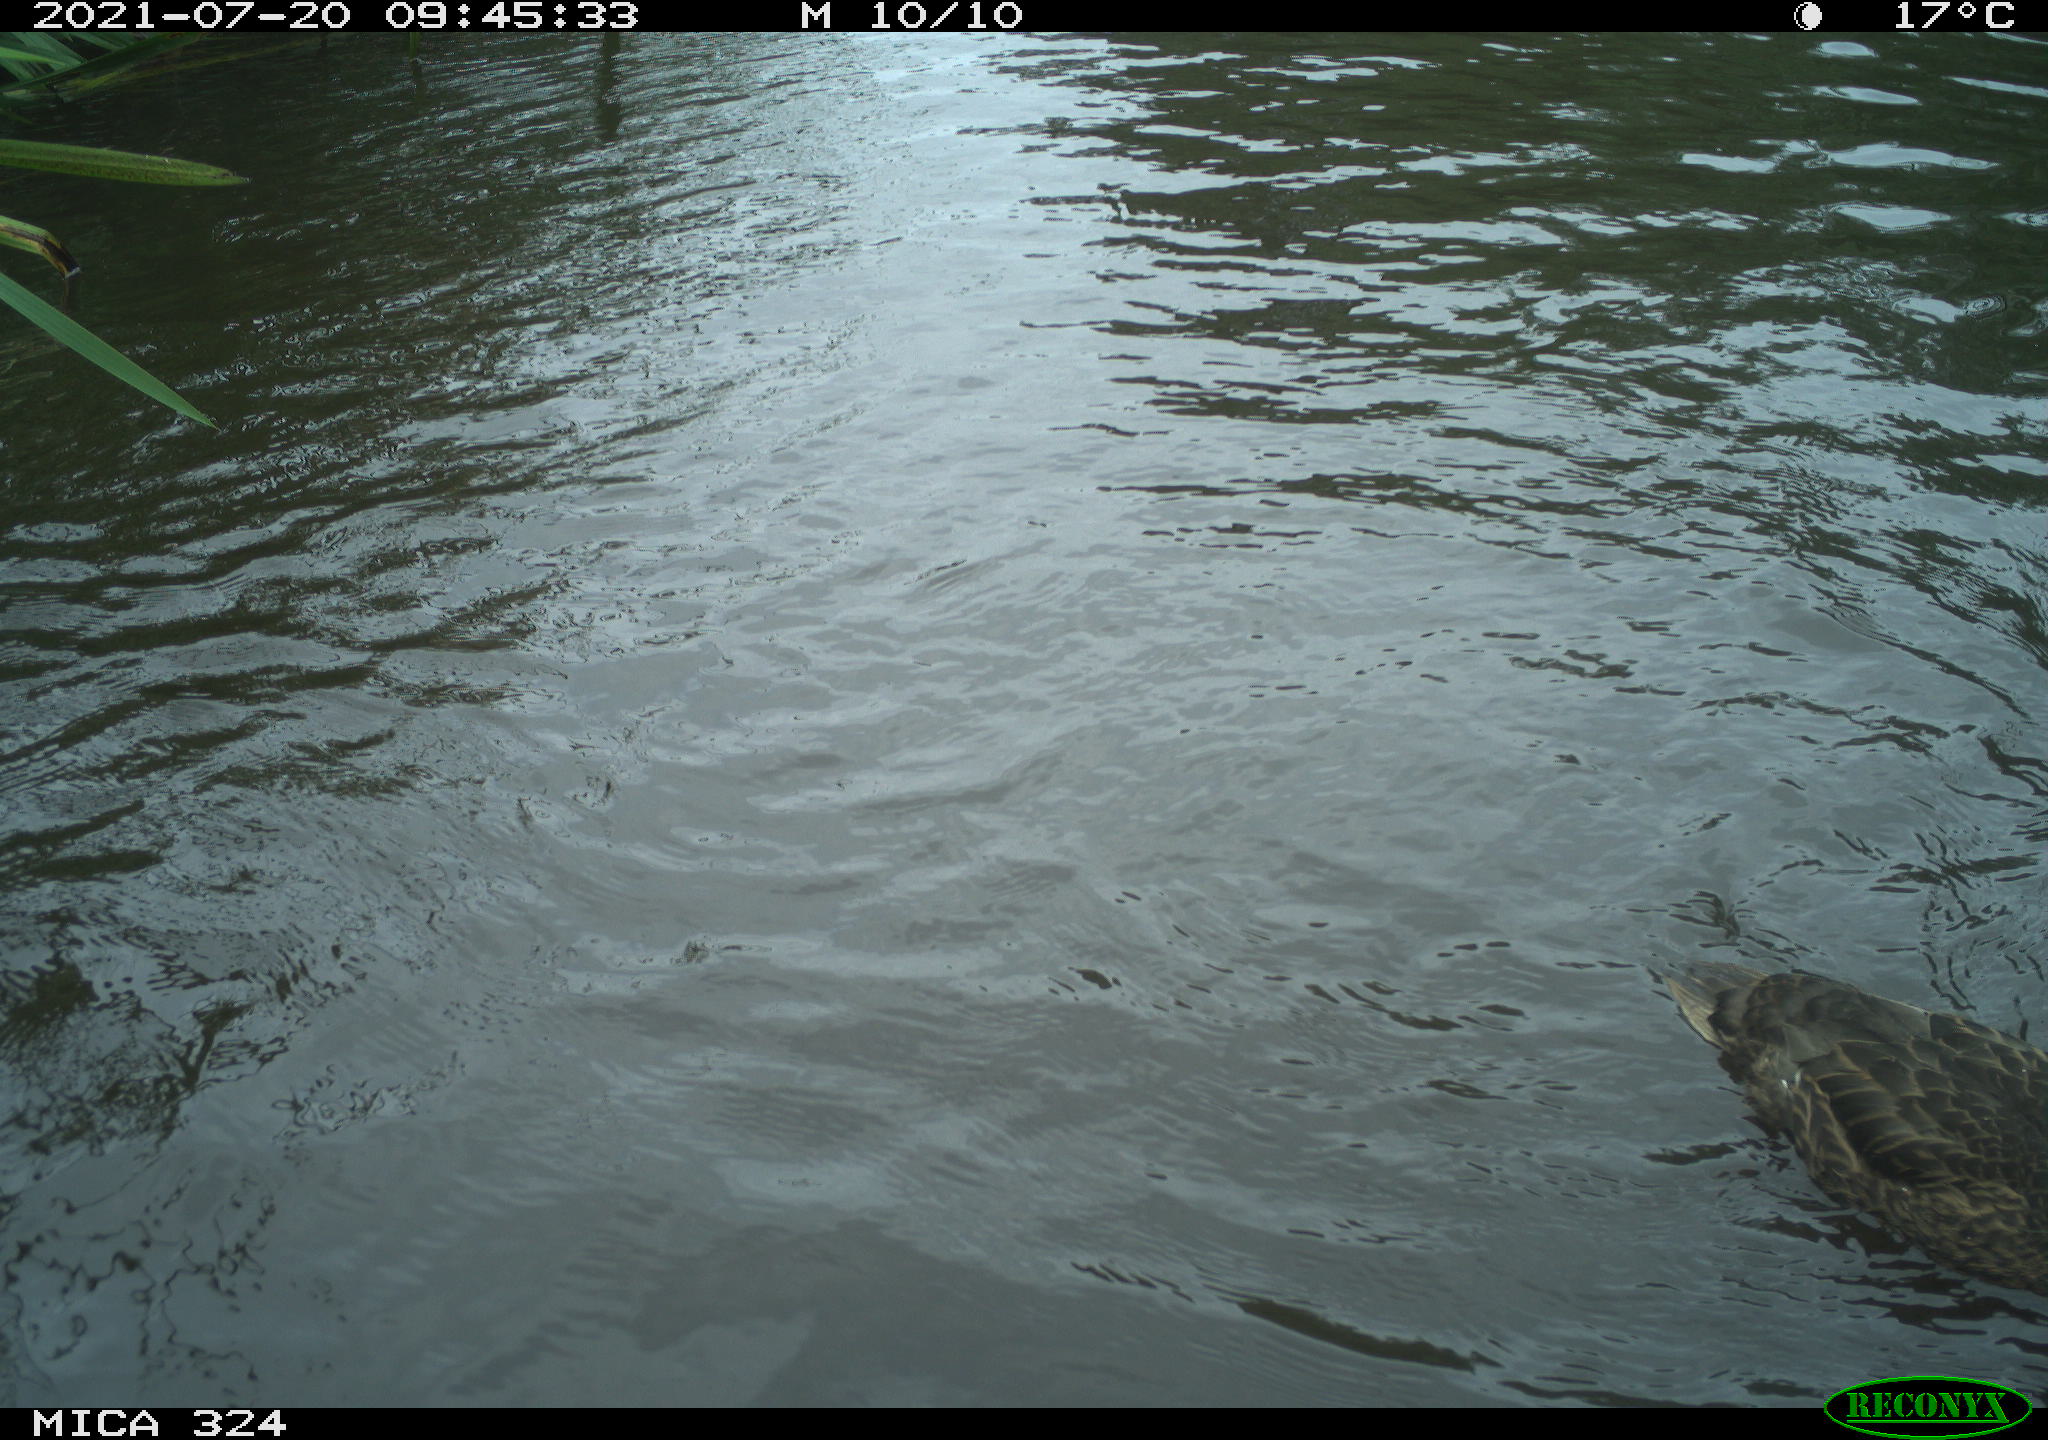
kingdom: Animalia
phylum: Chordata
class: Aves
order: Anseriformes
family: Anatidae
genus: Anas
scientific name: Anas platyrhynchos
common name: Mallard
